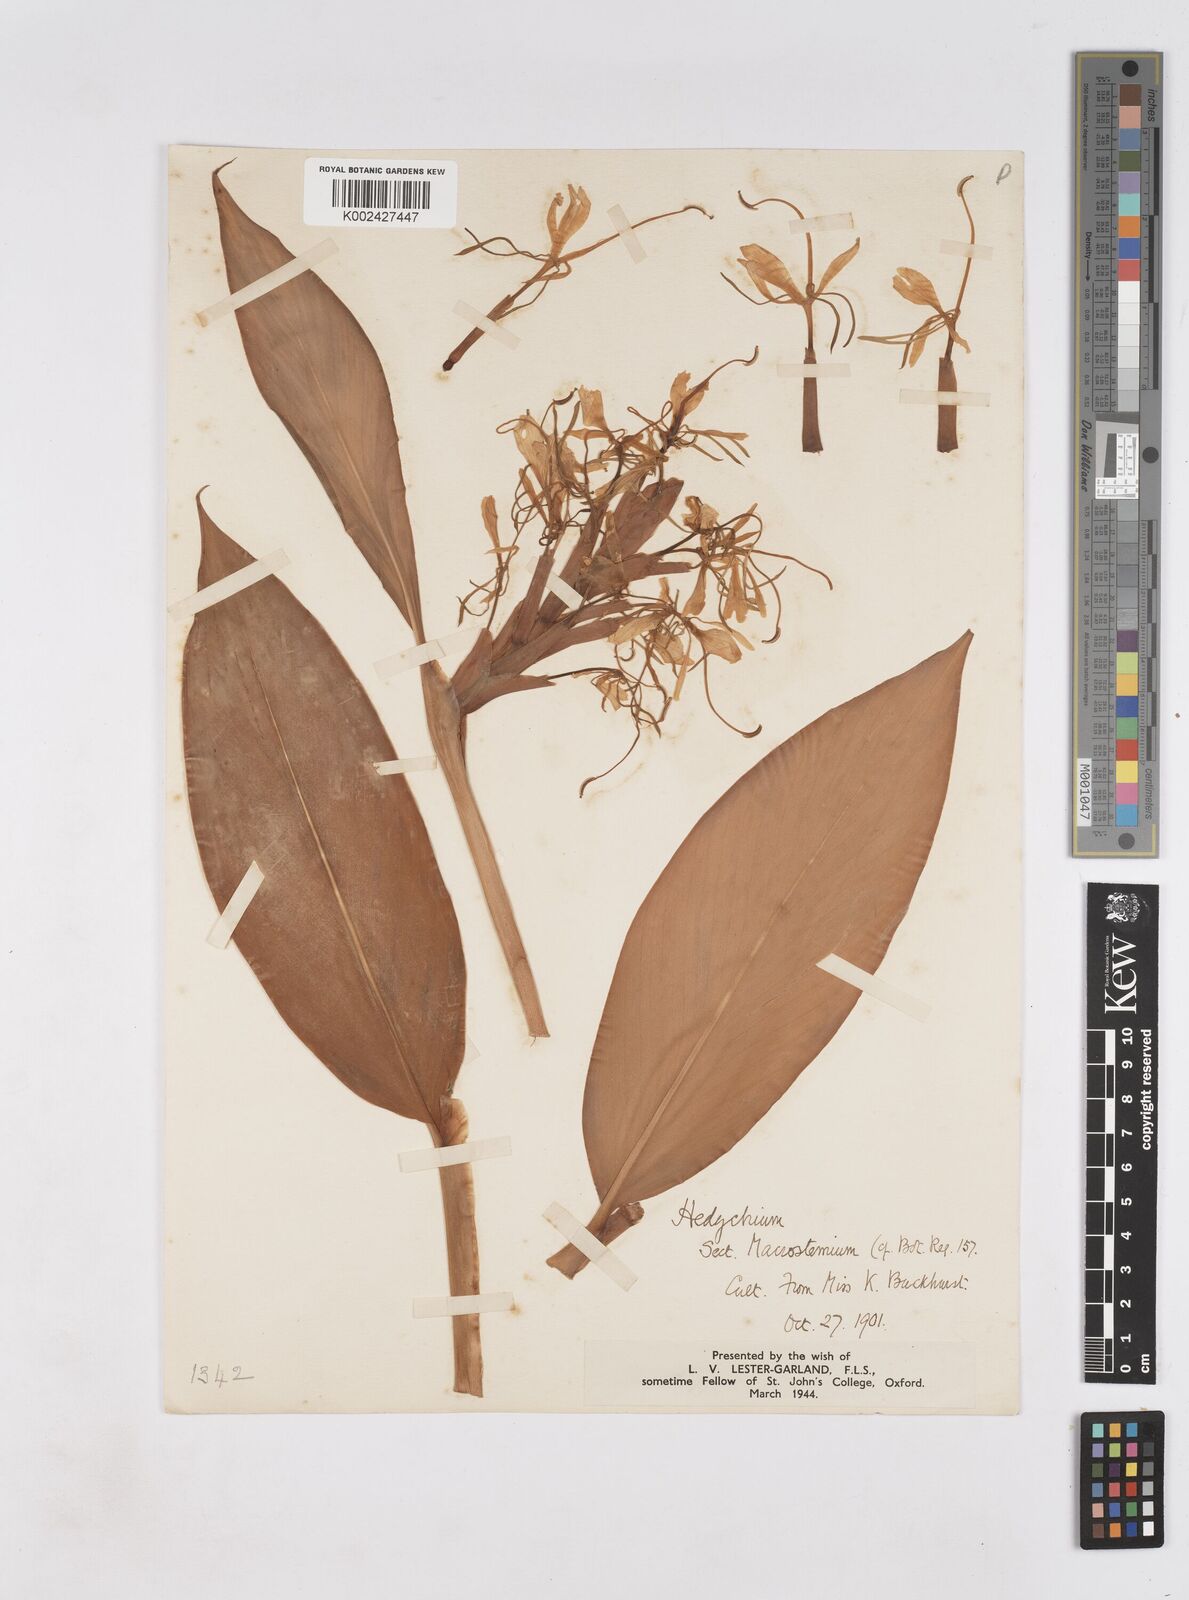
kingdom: Plantae
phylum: Tracheophyta
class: Liliopsida
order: Zingiberales
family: Zingiberaceae
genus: Hedychium
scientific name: Hedychium
